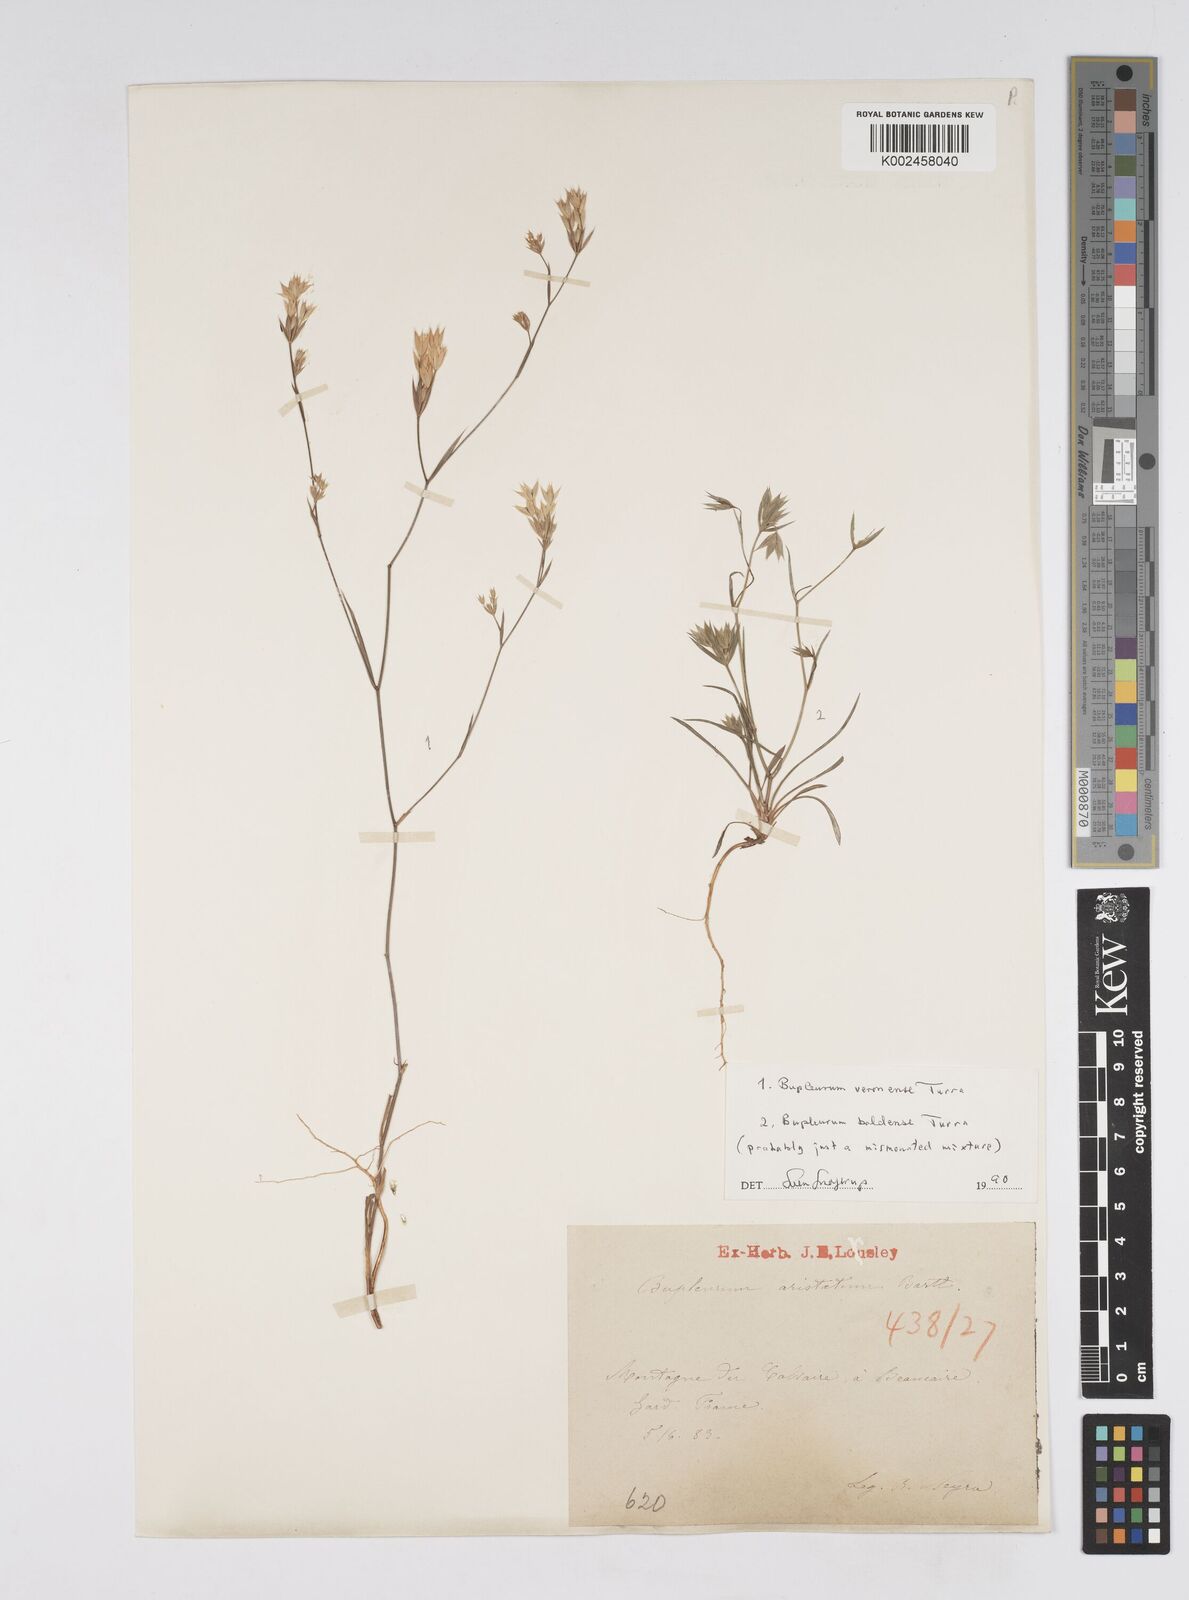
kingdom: Plantae
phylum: Tracheophyta
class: Magnoliopsida
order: Apiales
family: Apiaceae
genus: Bupleurum
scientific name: Bupleurum baldense
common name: Small hare's-ear
